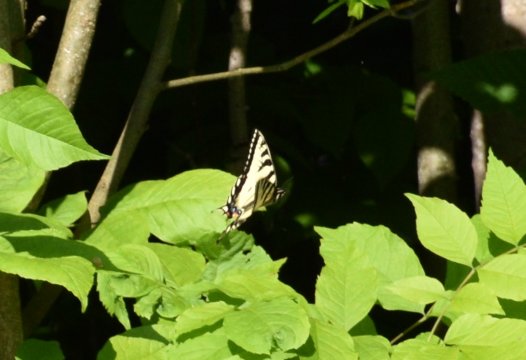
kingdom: Animalia
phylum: Arthropoda
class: Insecta
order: Lepidoptera
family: Papilionidae
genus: Pterourus
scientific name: Pterourus canadensis
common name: Canadian Tiger Swallowtail
